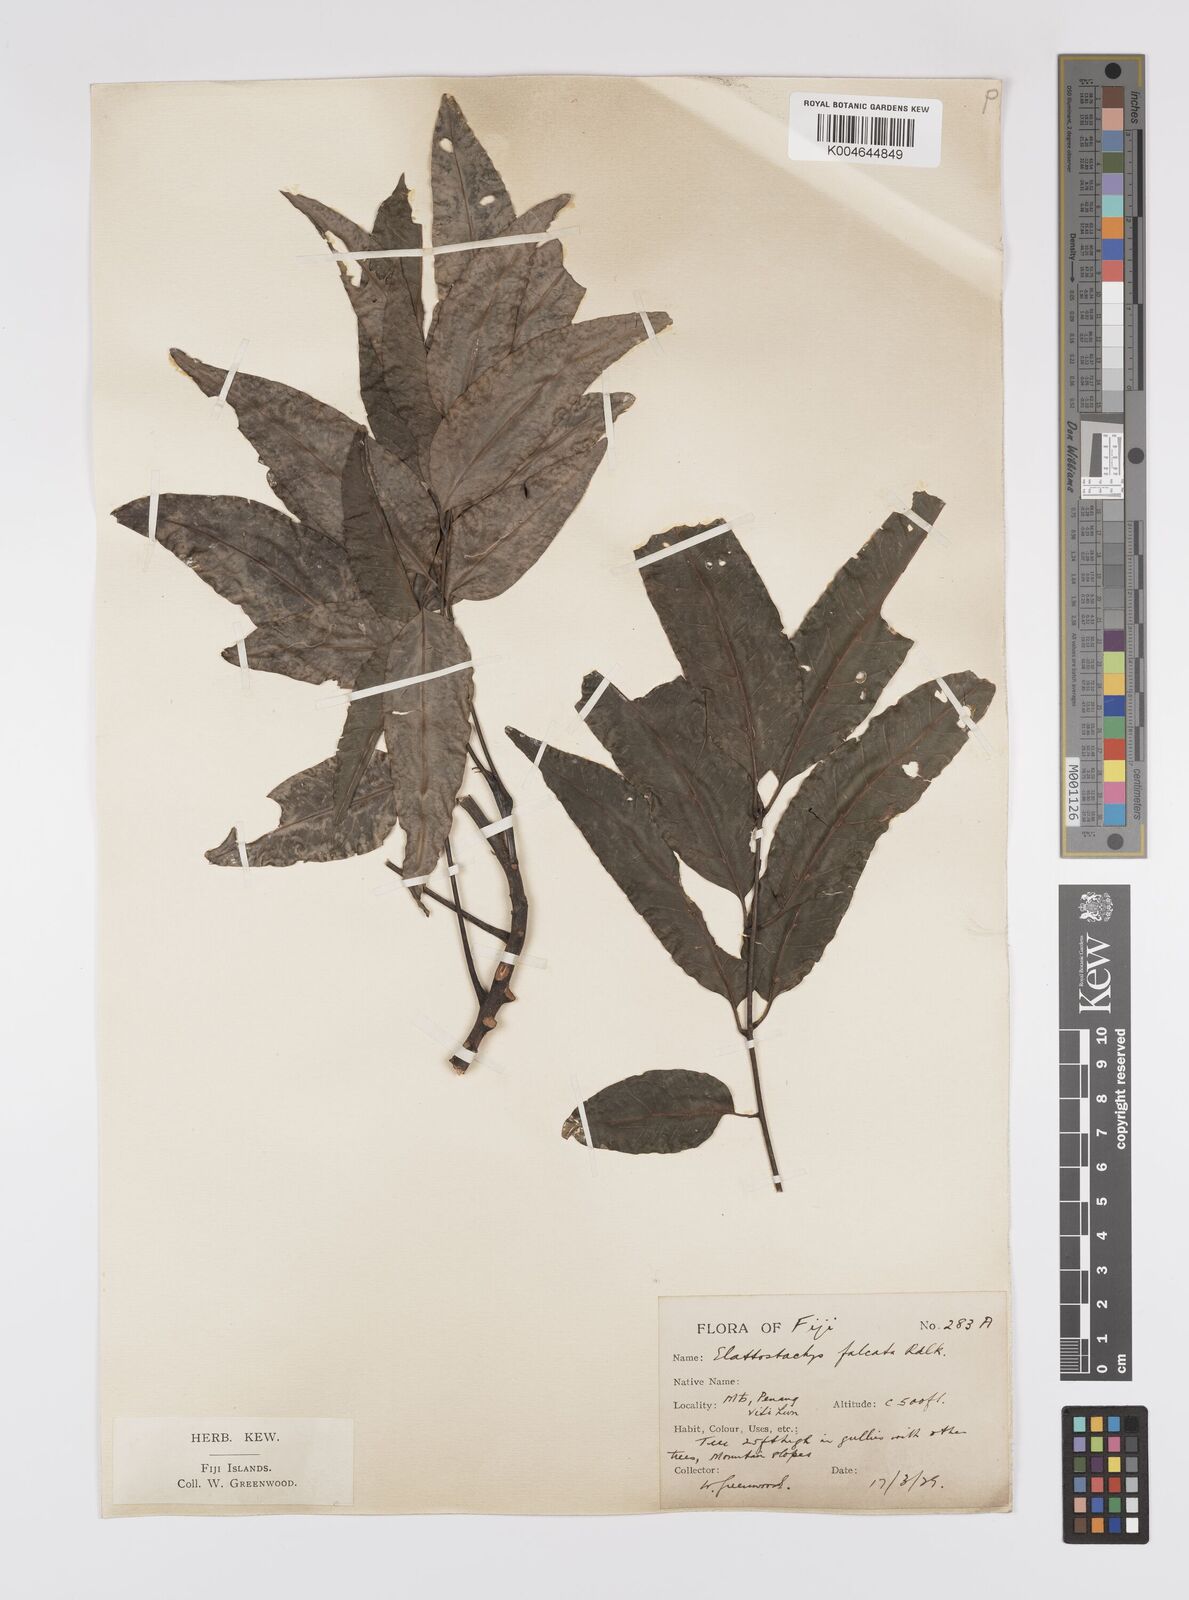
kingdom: Plantae
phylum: Tracheophyta
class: Magnoliopsida
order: Sapindales
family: Sapindaceae
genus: Elattostachys
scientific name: Elattostachys apetala
